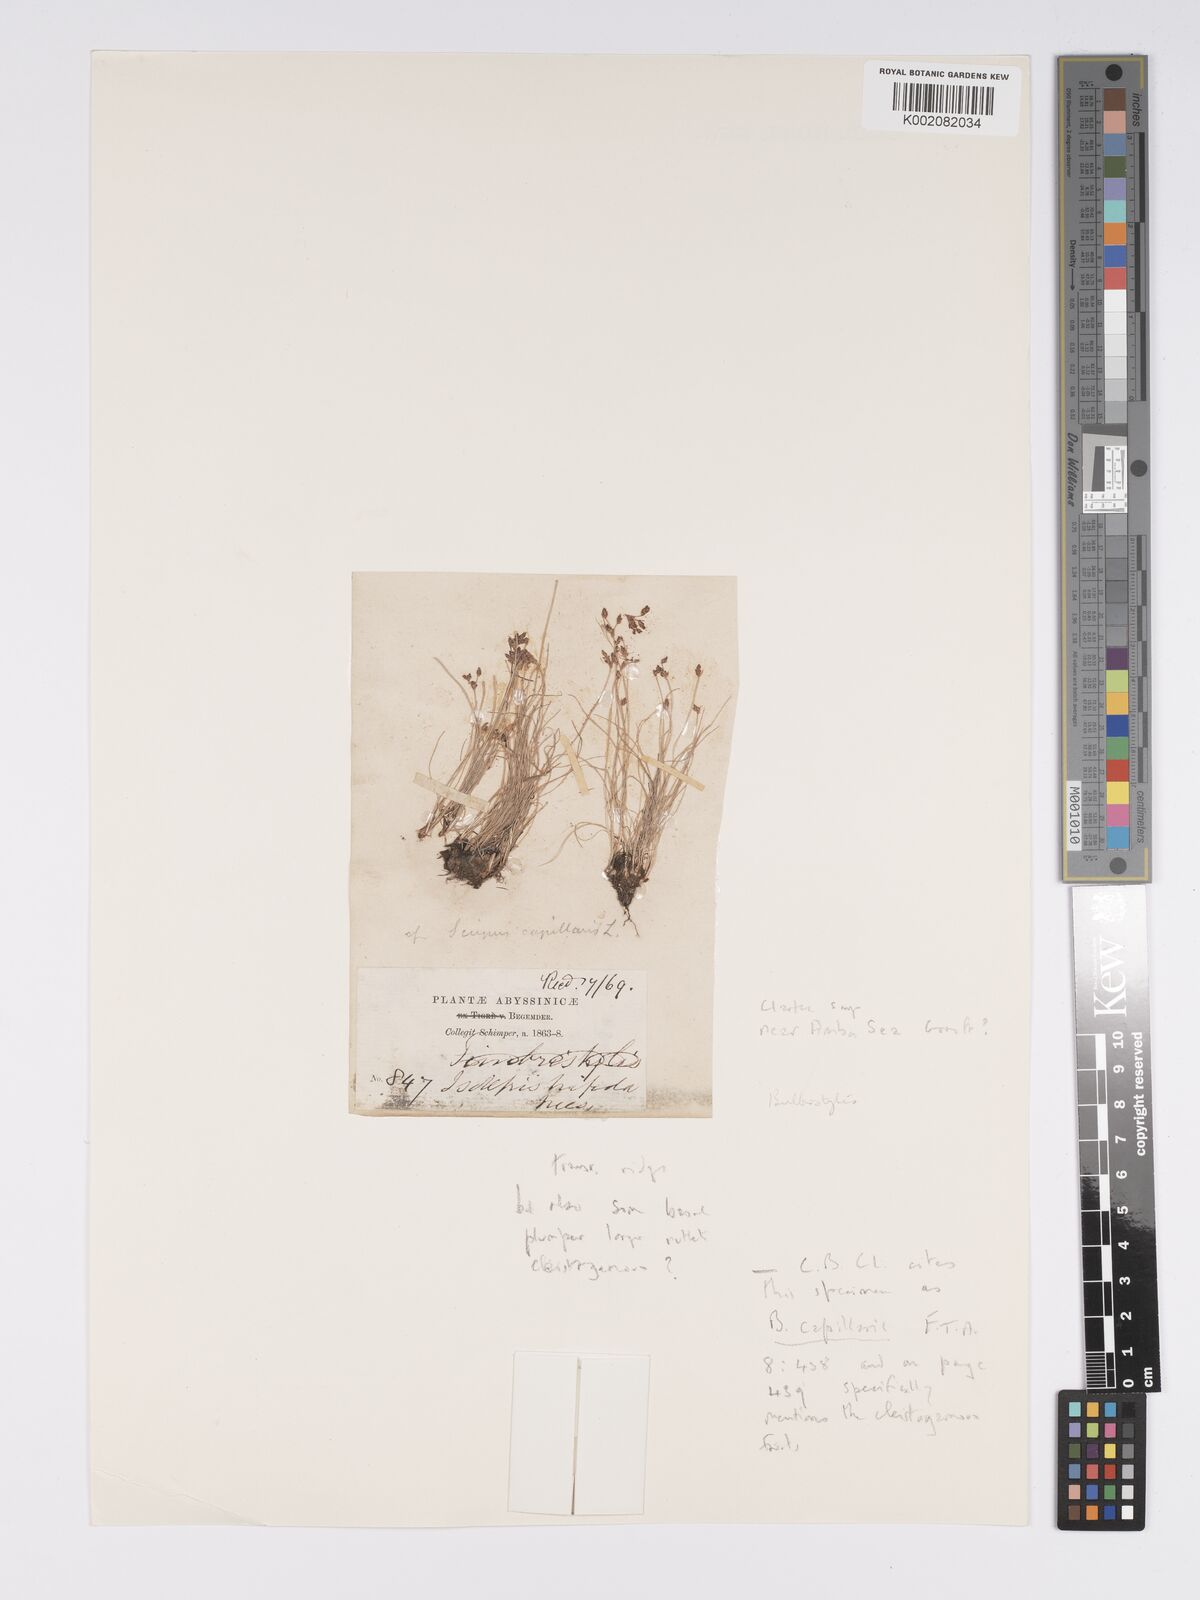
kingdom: Plantae
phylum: Tracheophyta
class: Liliopsida
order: Poales
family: Cyperaceae
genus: Bulbostylis
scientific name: Bulbostylis pusilla
